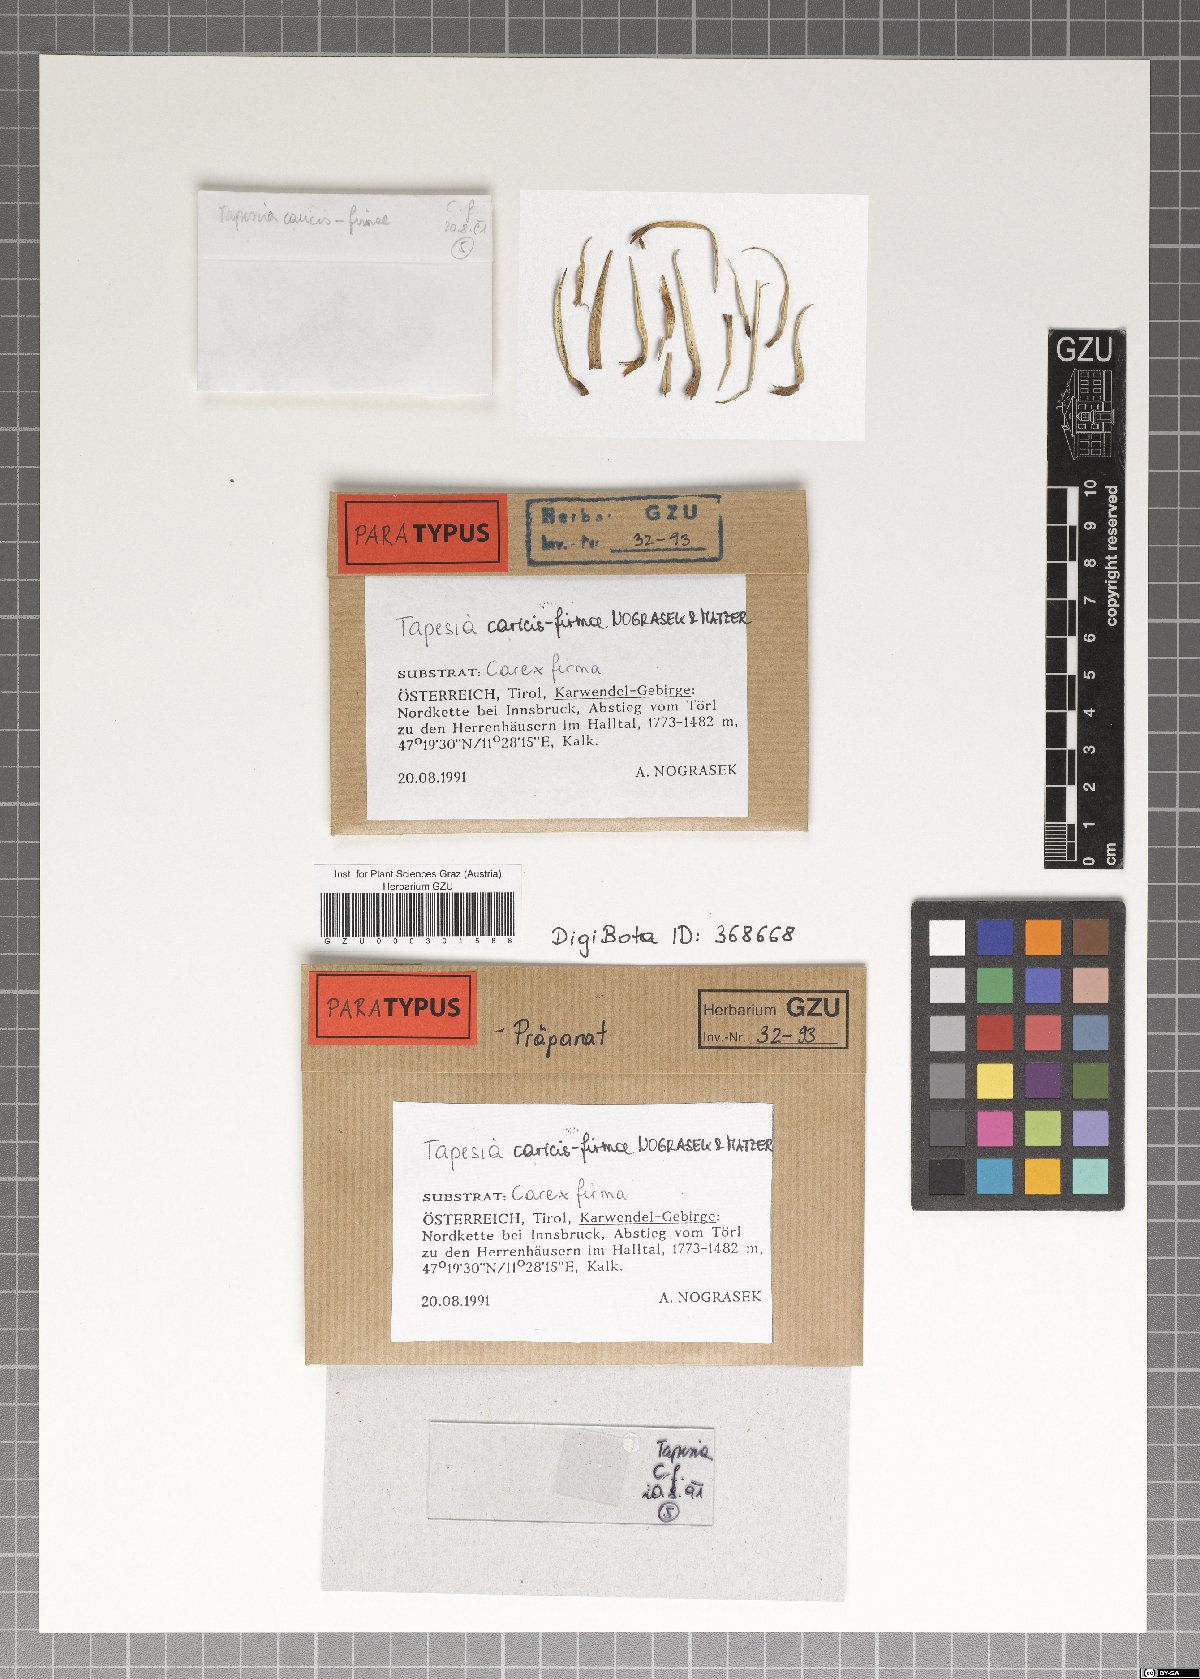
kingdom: Fungi
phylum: Ascomycota
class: Leotiomycetes
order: Helotiales
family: Mollisiaceae
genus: Tapesia
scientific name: Tapesia caricis-firmae
